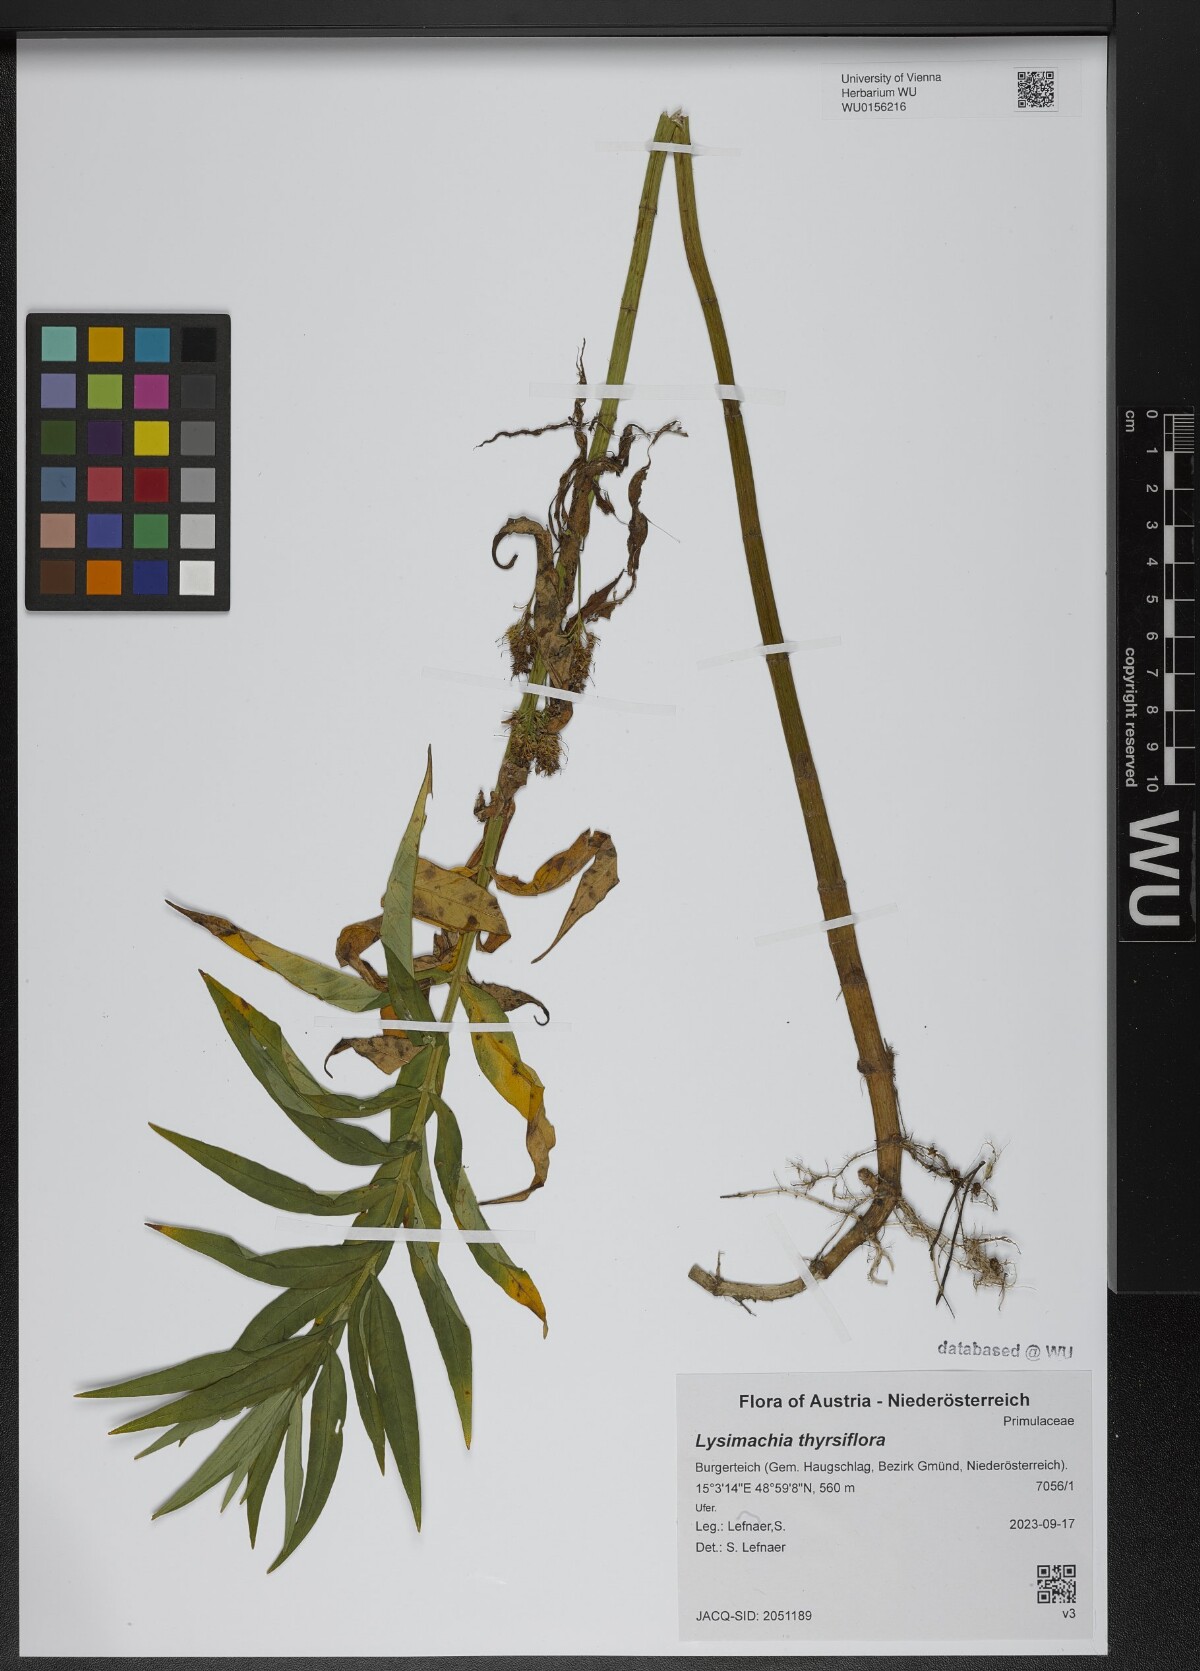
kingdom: Plantae
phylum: Tracheophyta
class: Magnoliopsida
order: Ericales
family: Primulaceae
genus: Lysimachia
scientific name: Lysimachia thyrsiflora
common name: Tufted loosestrife
